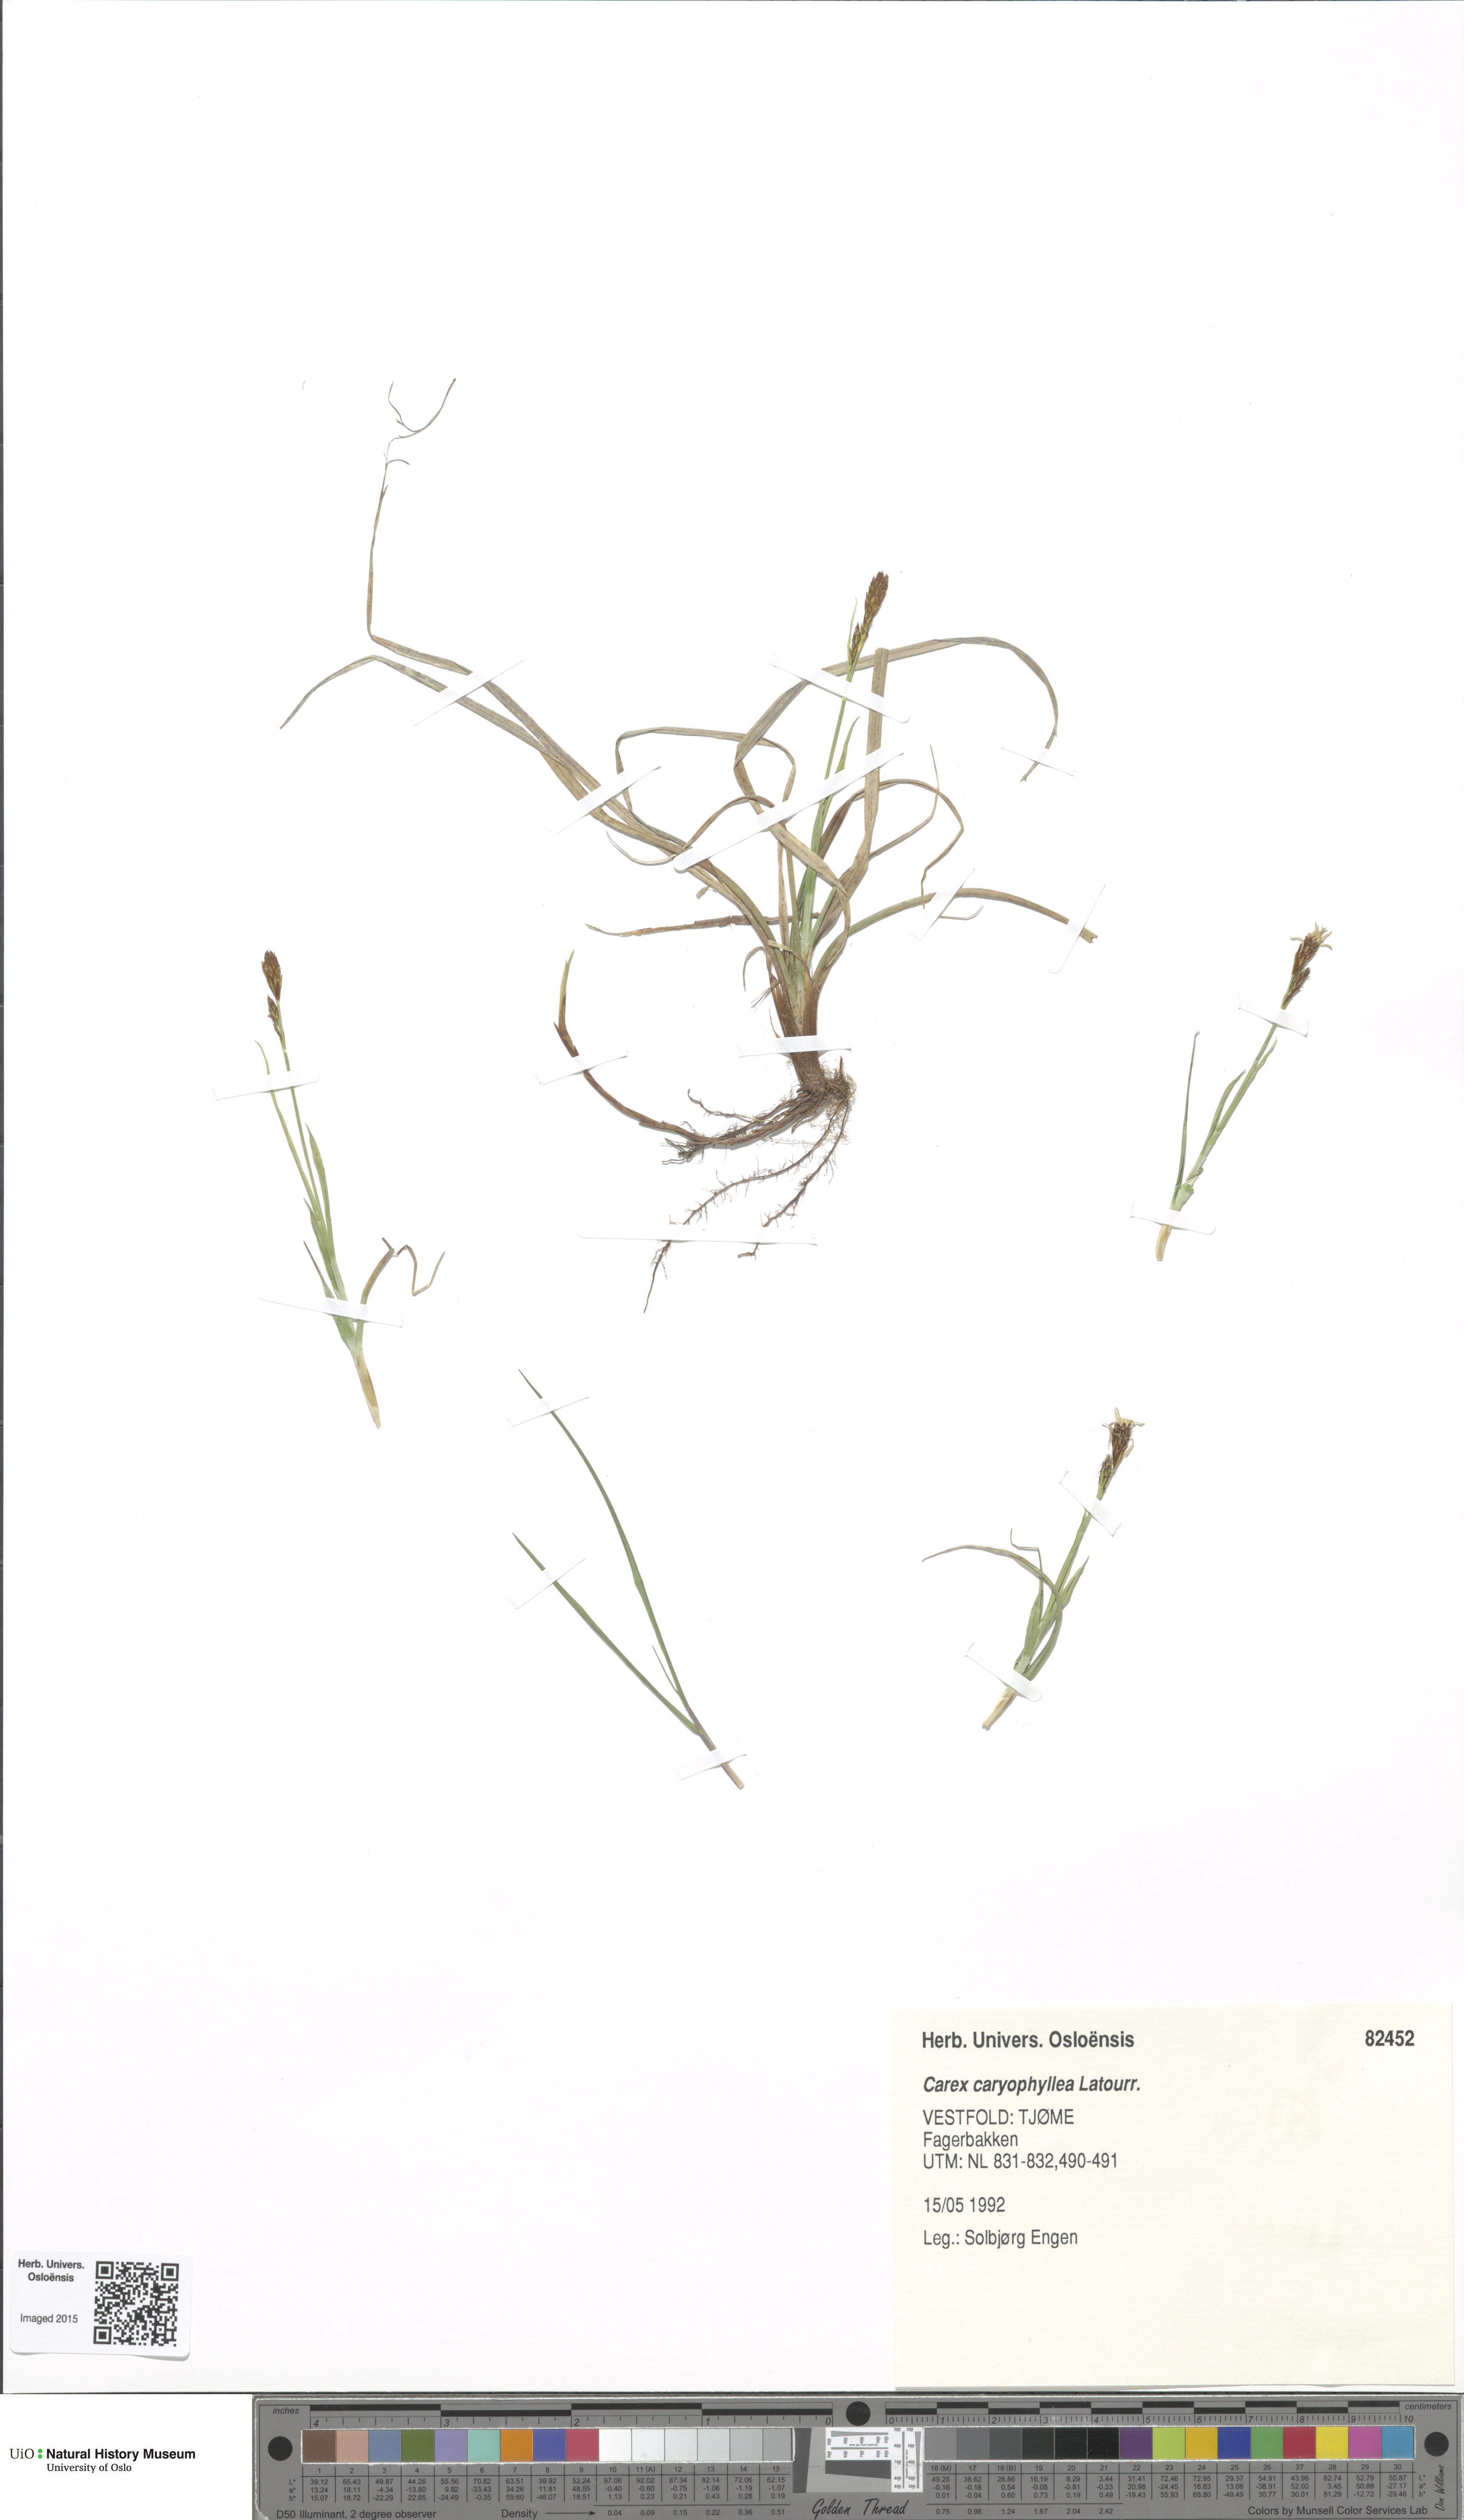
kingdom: Plantae
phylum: Tracheophyta
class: Liliopsida
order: Poales
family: Cyperaceae
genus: Carex
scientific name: Carex caryophyllea
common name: Spring sedge
